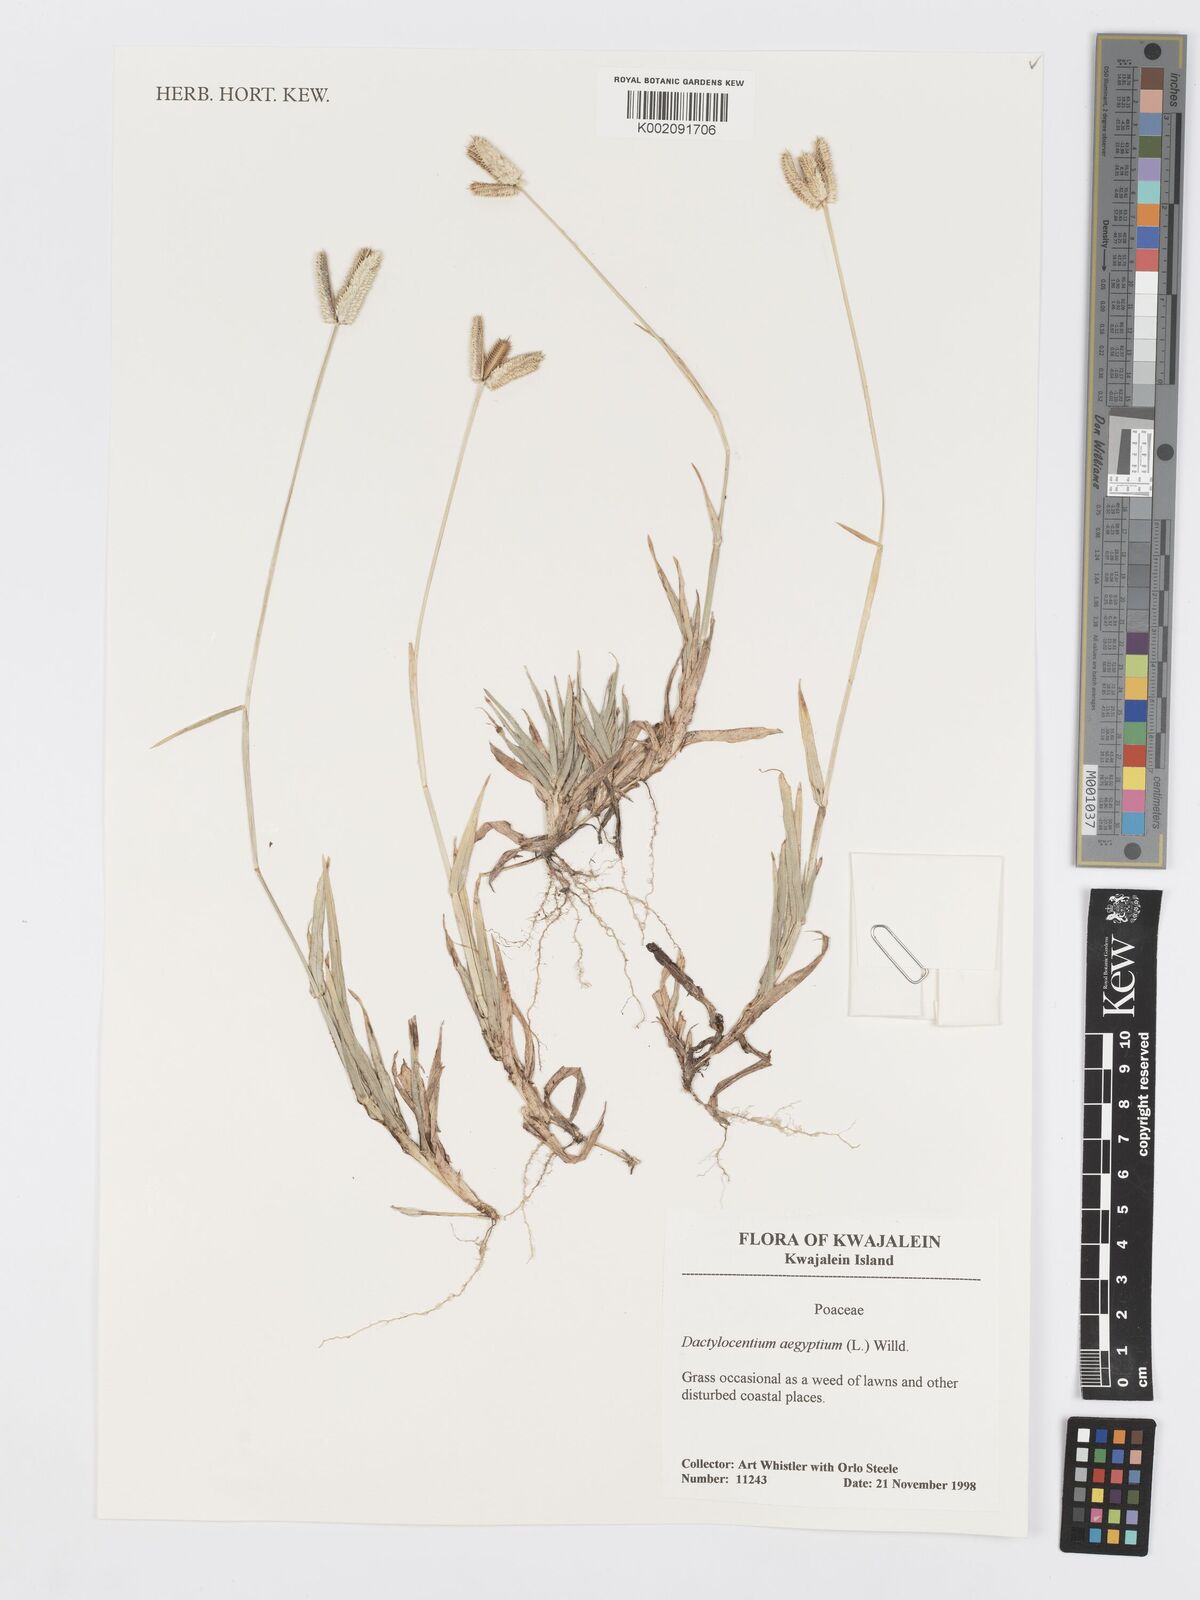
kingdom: Plantae
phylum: Tracheophyta
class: Liliopsida
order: Poales
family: Poaceae
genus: Dactyloctenium
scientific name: Dactyloctenium aegyptium
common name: Egyptian grass
